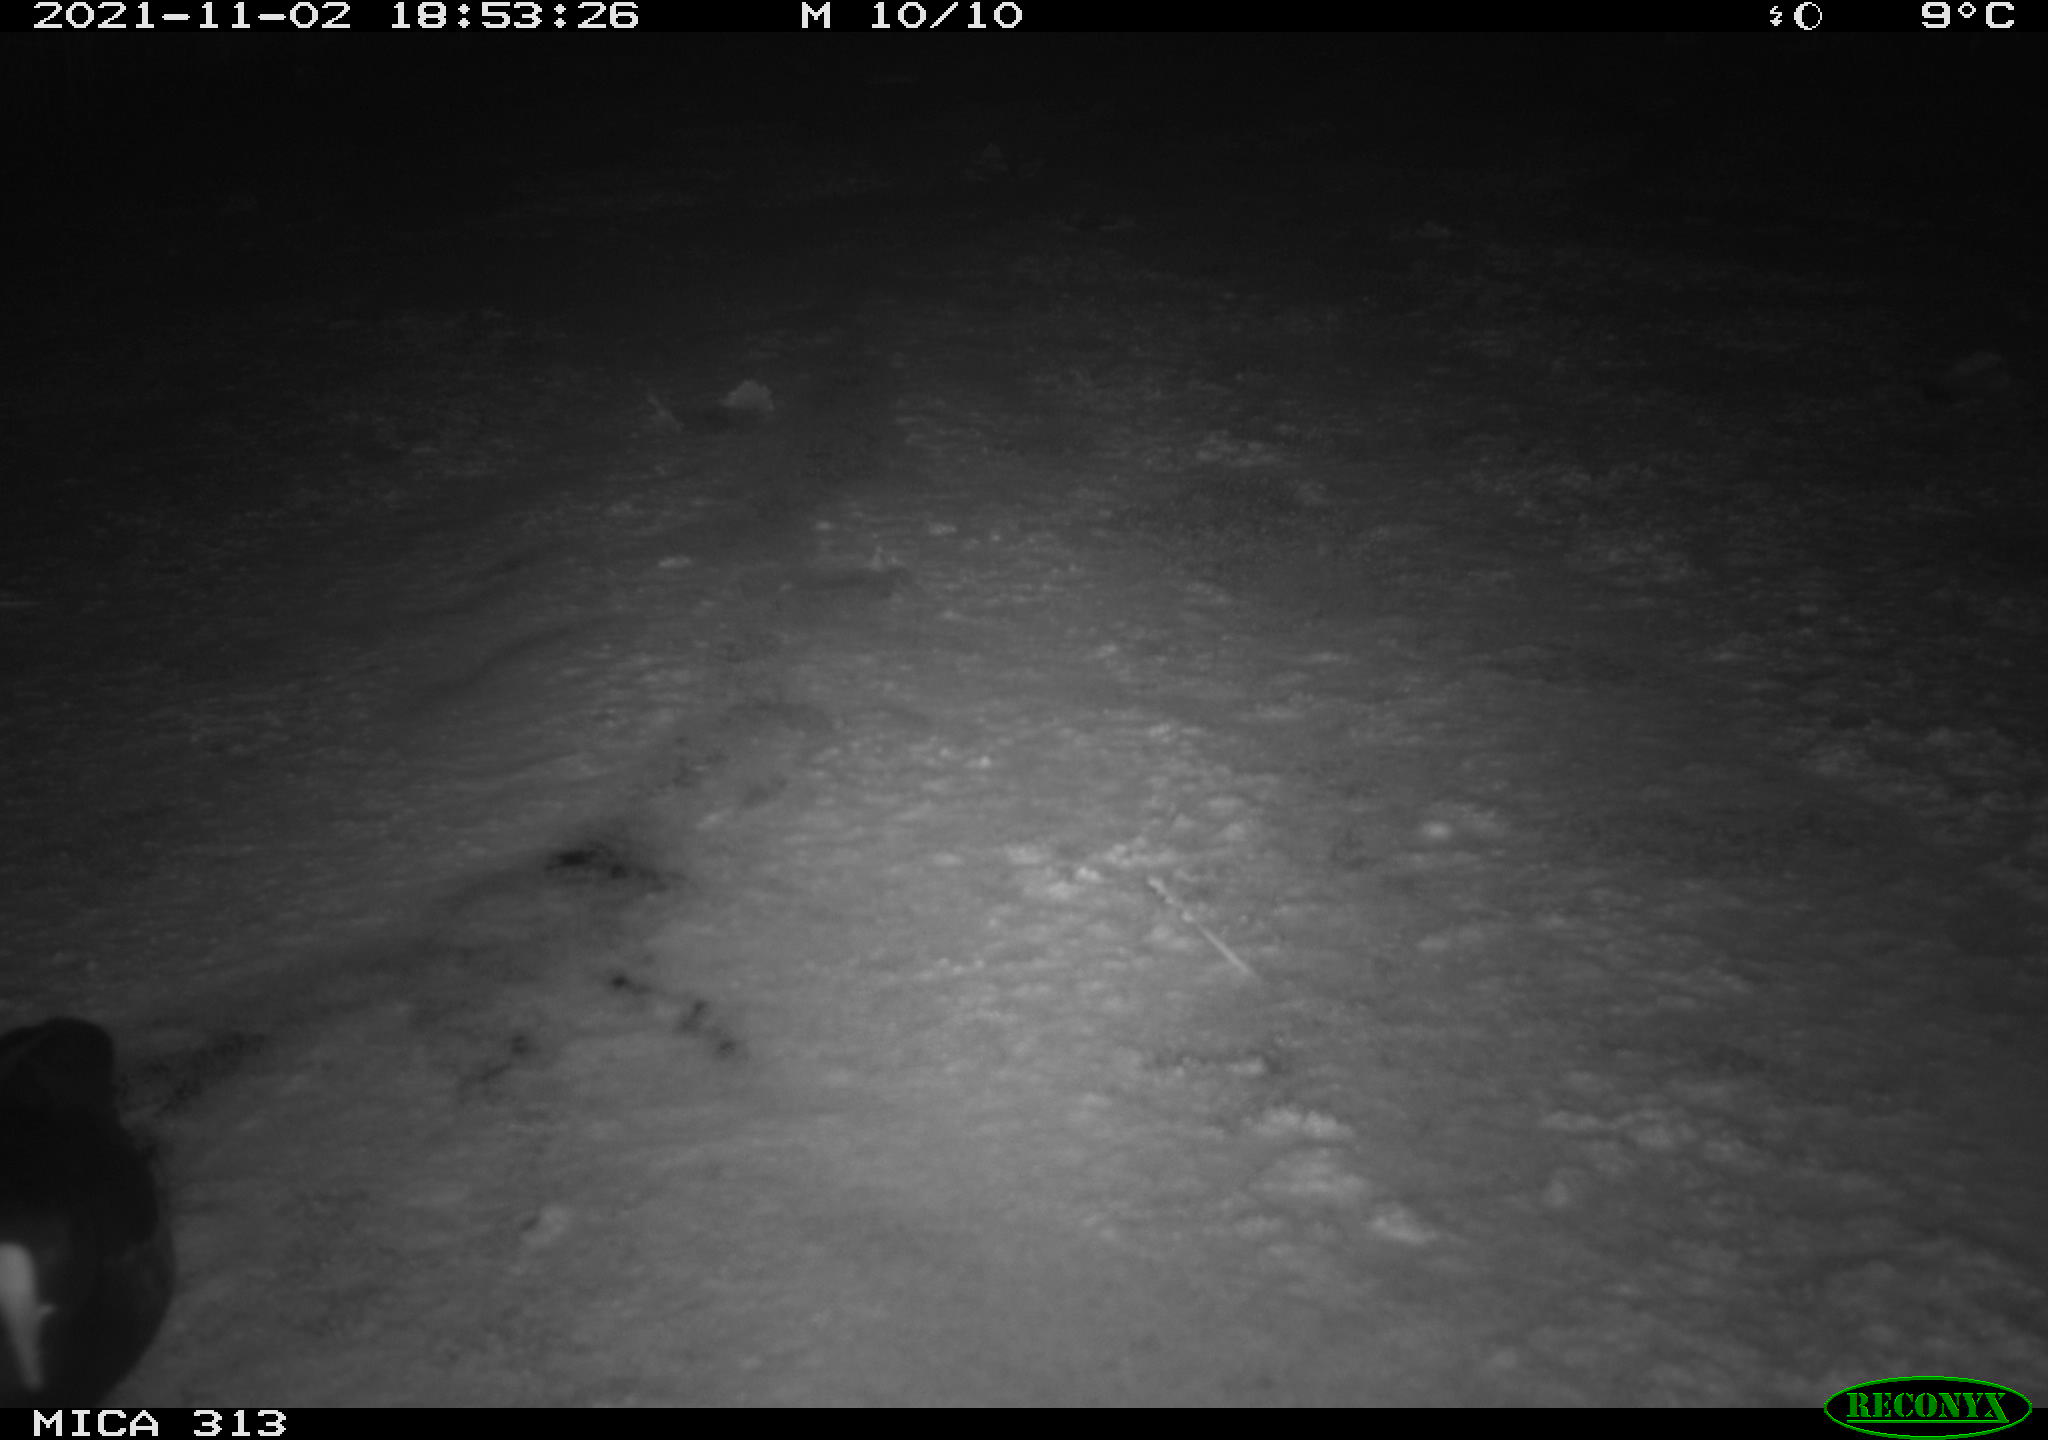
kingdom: Animalia
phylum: Chordata
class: Aves
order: Gruiformes
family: Rallidae
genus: Fulica
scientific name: Fulica atra
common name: Eurasian coot
